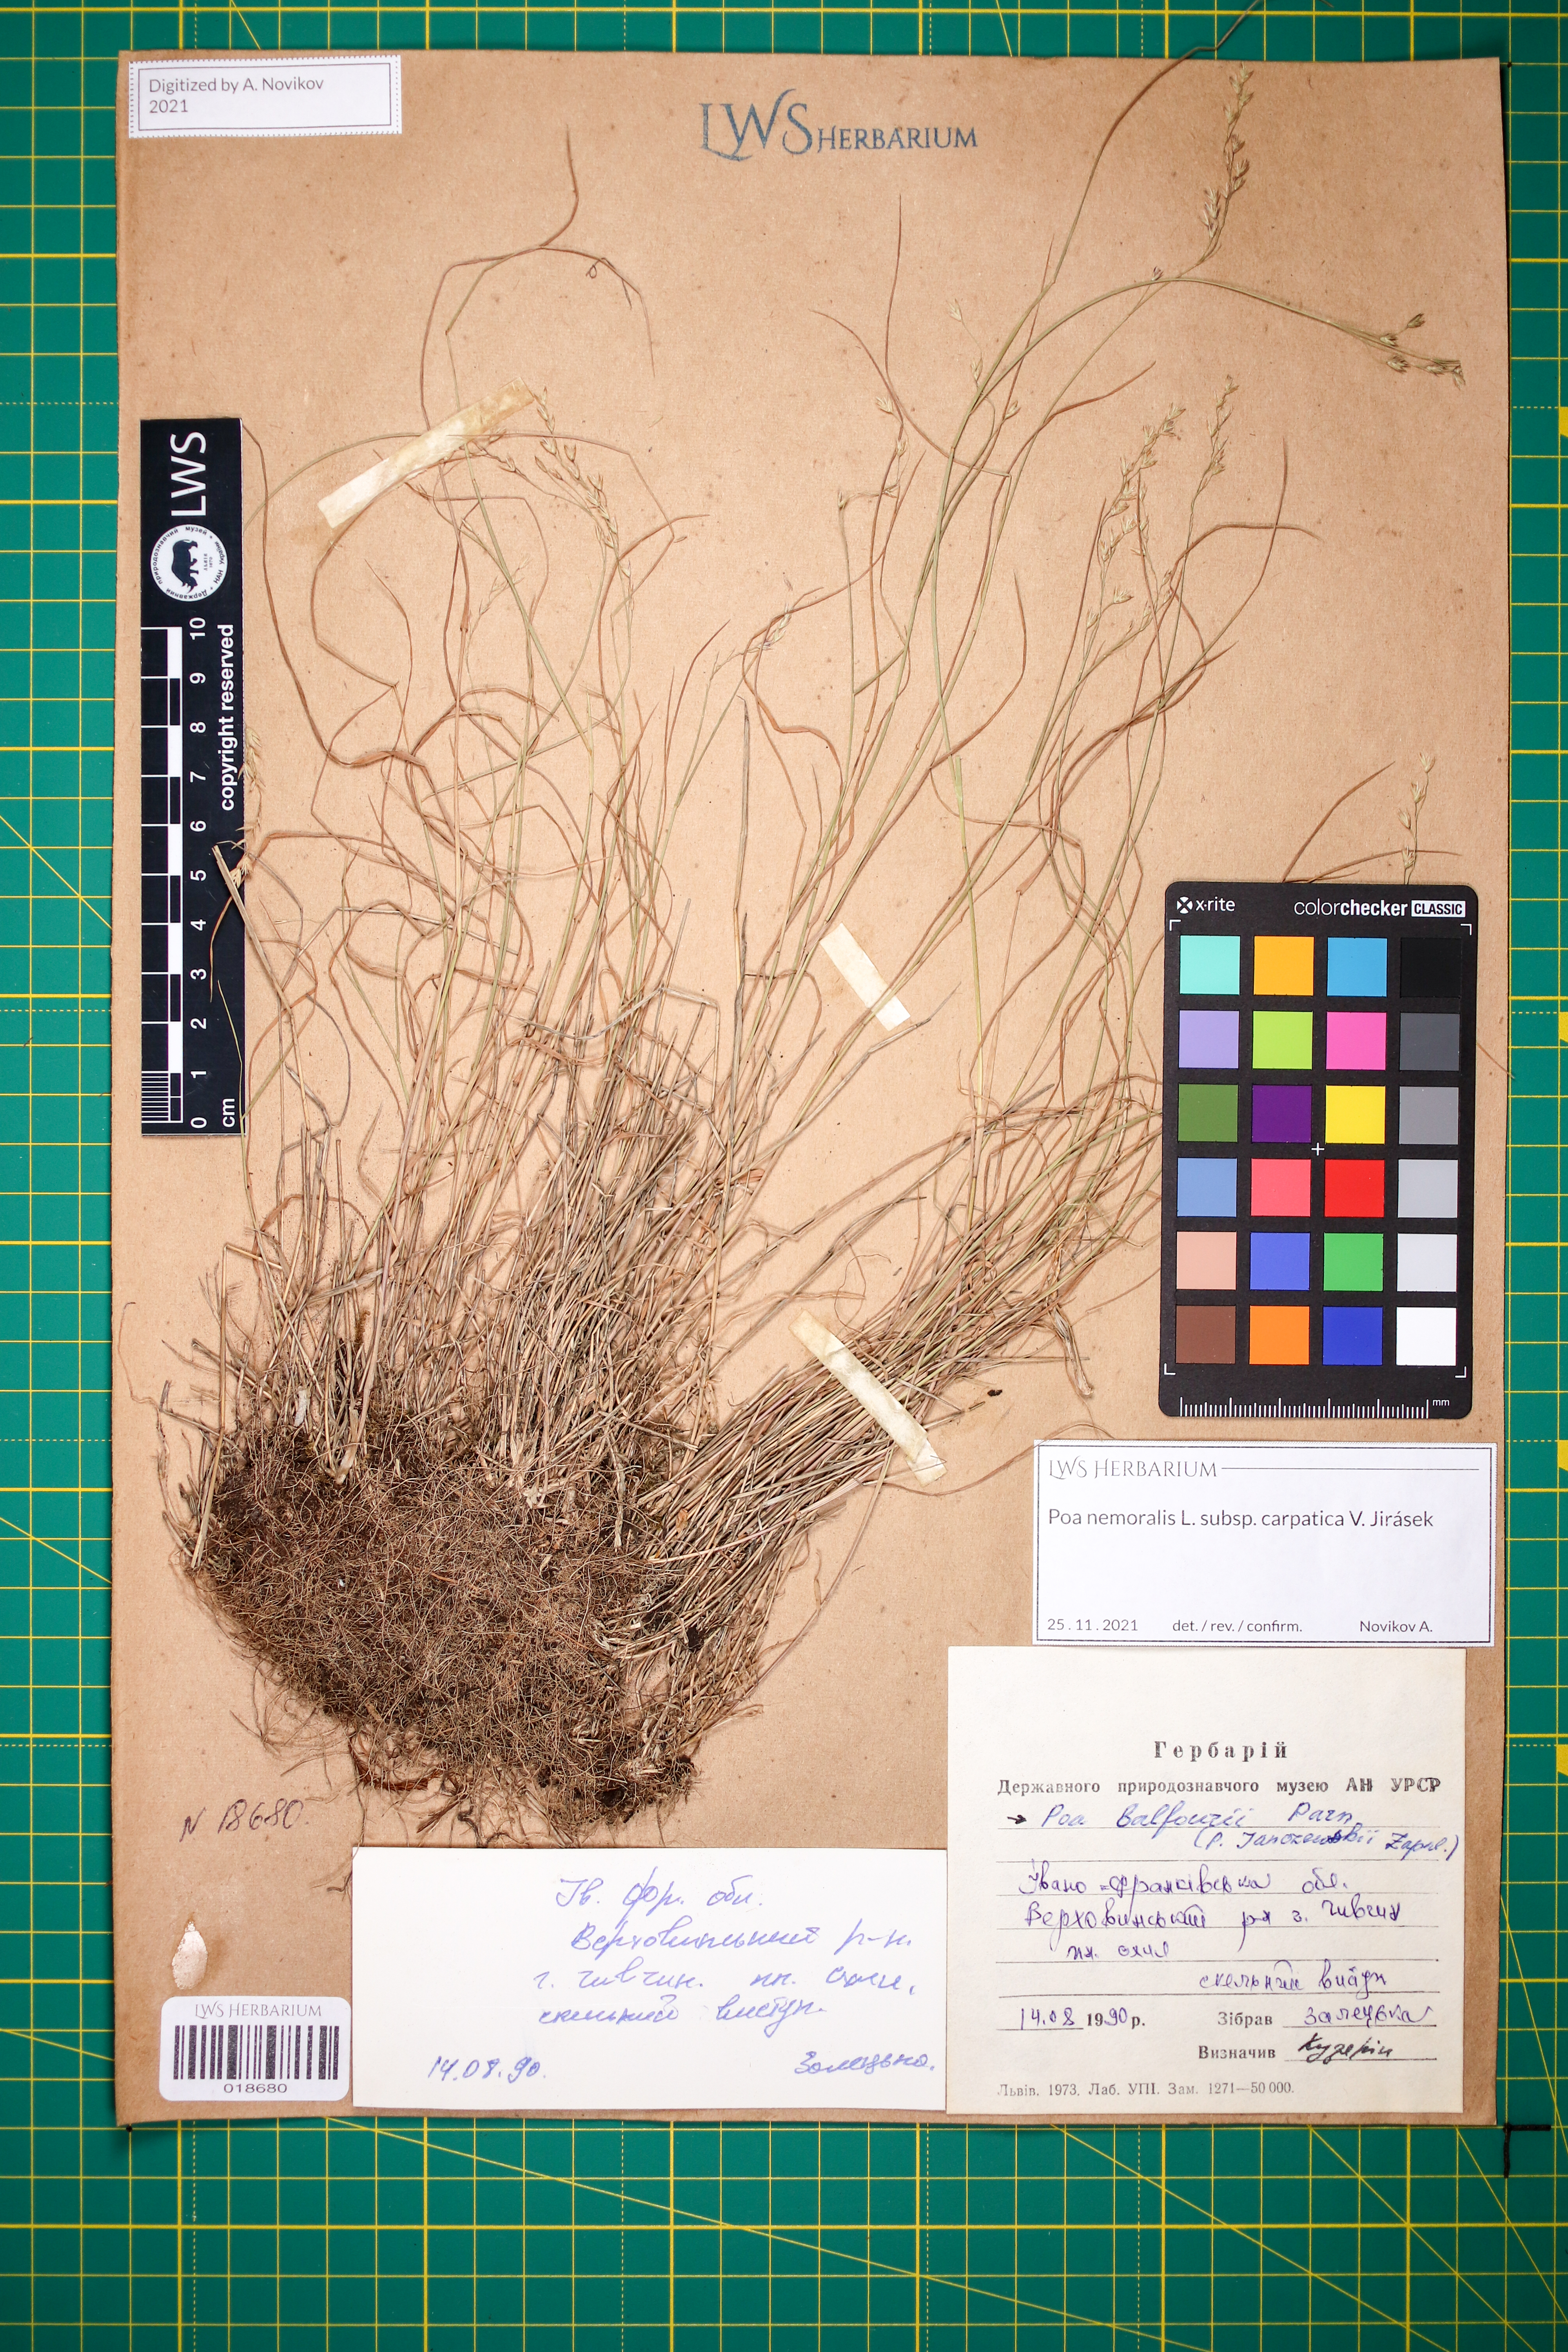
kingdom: Plantae
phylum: Tracheophyta
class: Liliopsida
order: Poales
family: Poaceae
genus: Poa
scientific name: Poa carpatica
